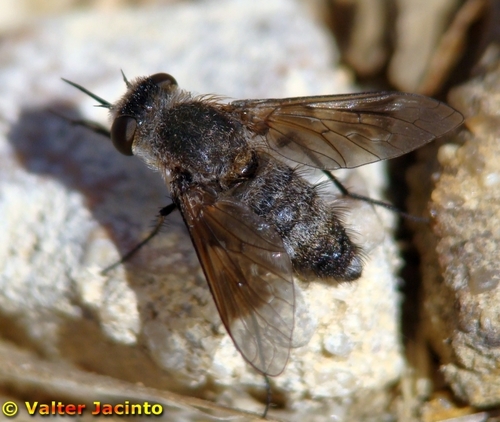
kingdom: Animalia
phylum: Arthropoda
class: Insecta
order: Diptera
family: Bombyliidae
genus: Cytherea
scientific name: Cytherea obscura
